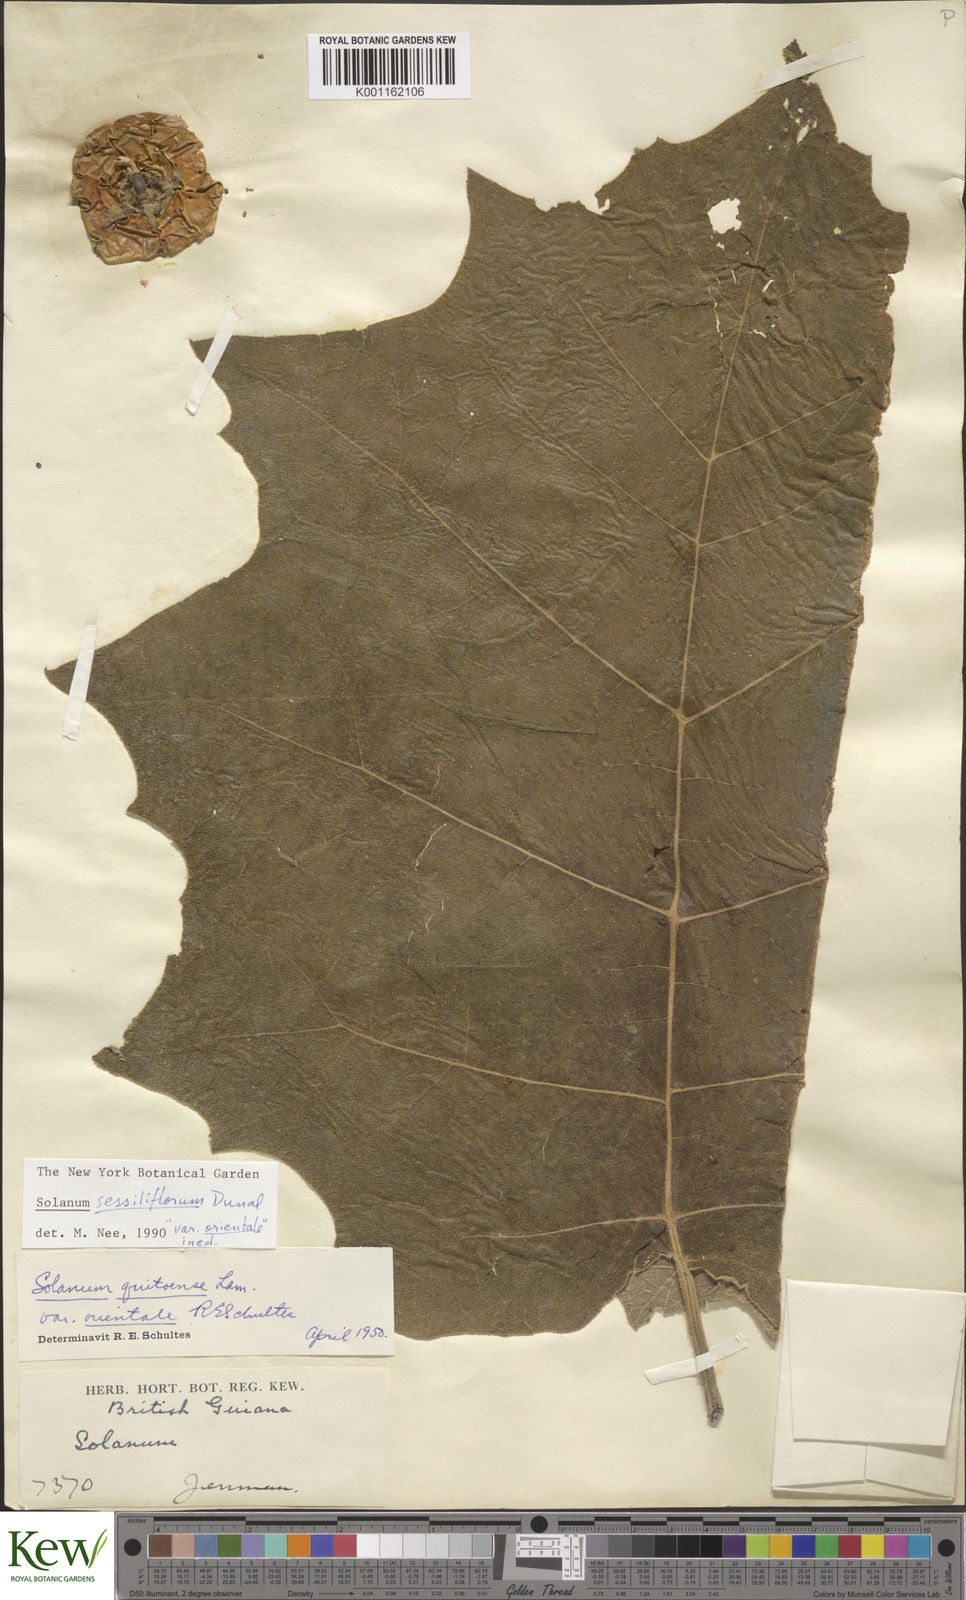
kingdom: Plantae
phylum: Tracheophyta
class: Magnoliopsida
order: Solanales
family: Solanaceae
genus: Solanum
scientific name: Solanum sessiliflorum
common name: Orinoco-apple
